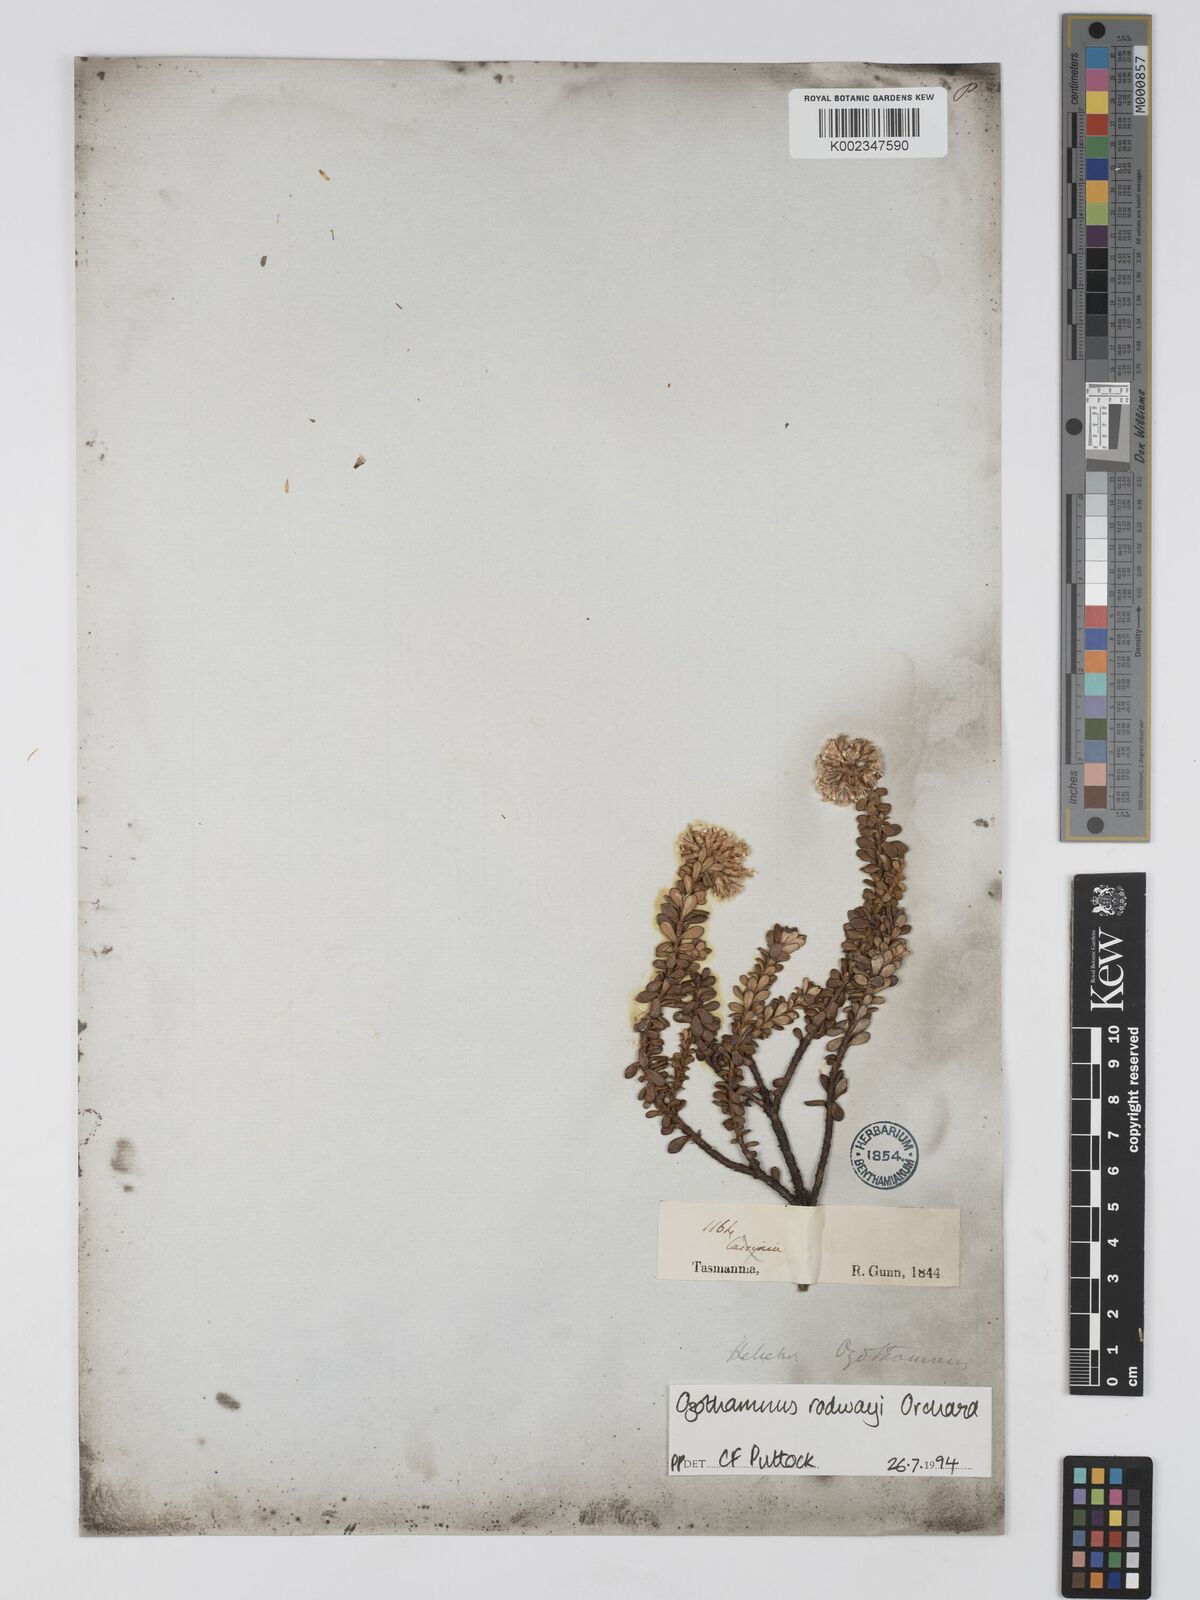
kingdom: Plantae
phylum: Tracheophyta
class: Magnoliopsida
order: Asterales
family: Asteraceae
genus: Ozothamnus
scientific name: Ozothamnus rodwayi
